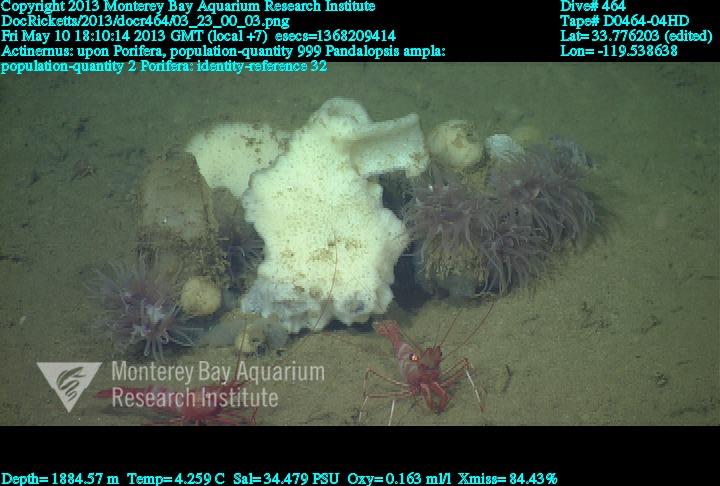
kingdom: Animalia
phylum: Porifera
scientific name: Porifera
